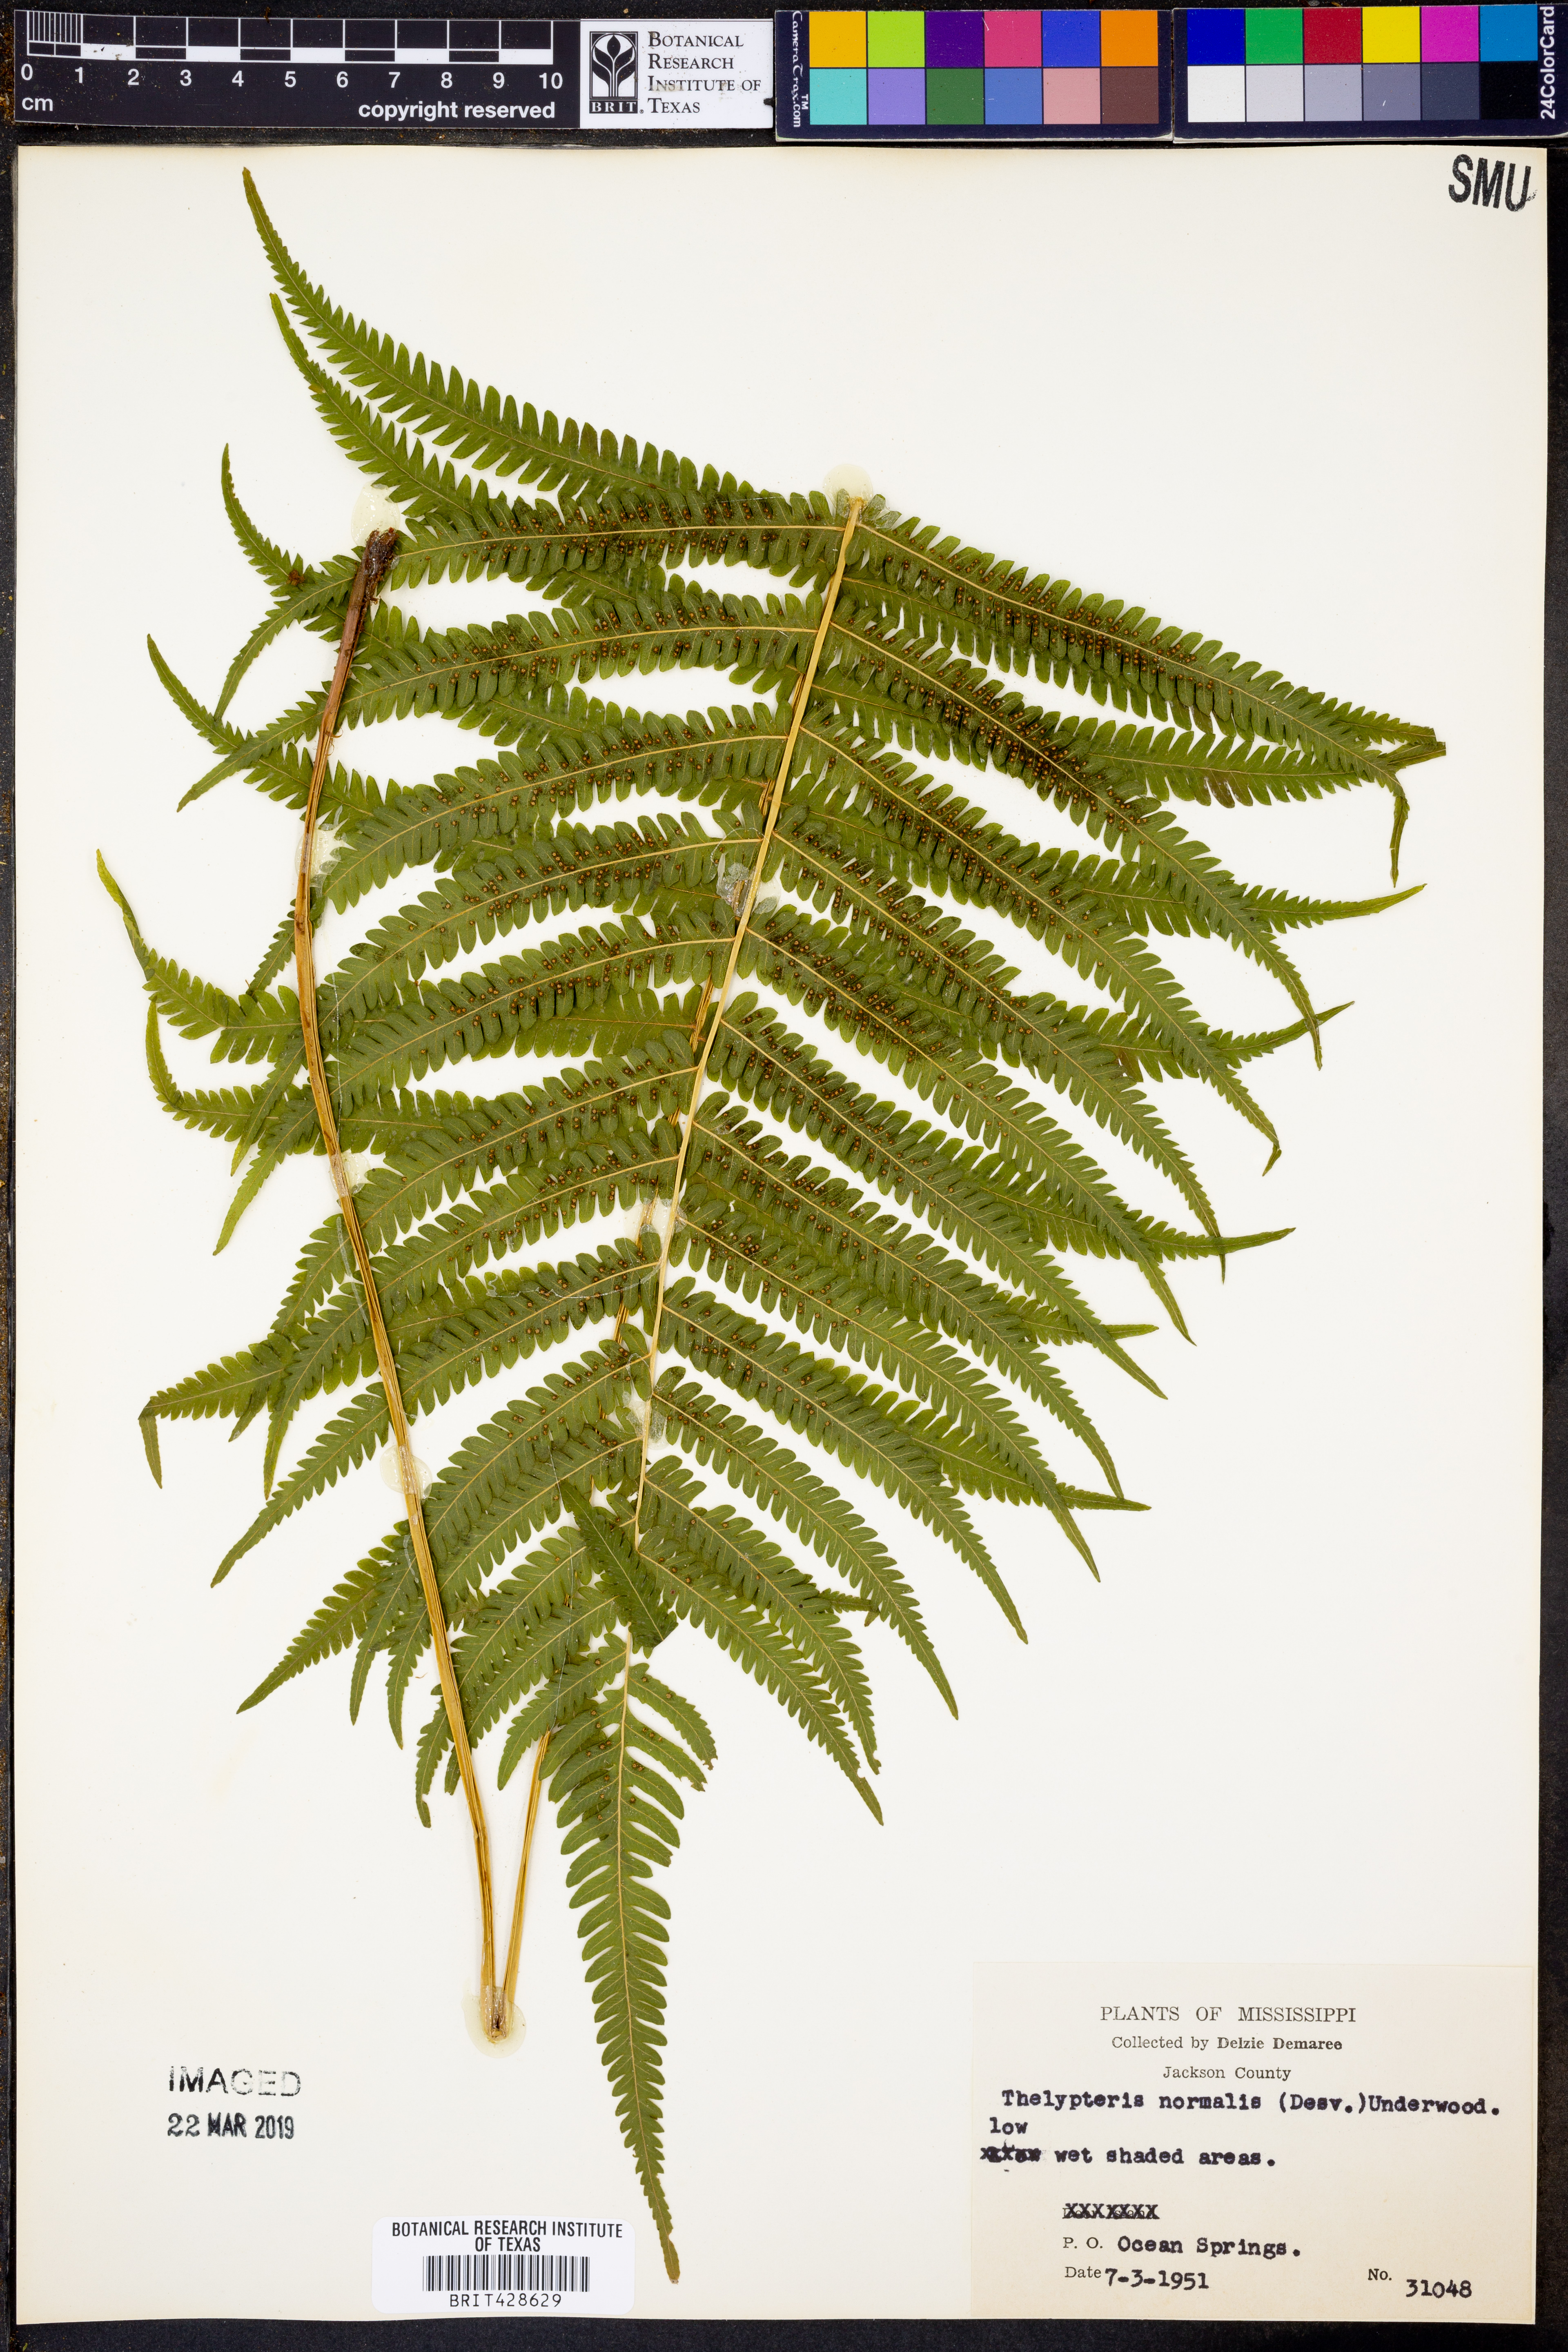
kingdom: Plantae
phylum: Tracheophyta
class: Polypodiopsida
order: Polypodiales
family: Thelypteridaceae
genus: Pelazoneuron
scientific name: Pelazoneuron kunthii
